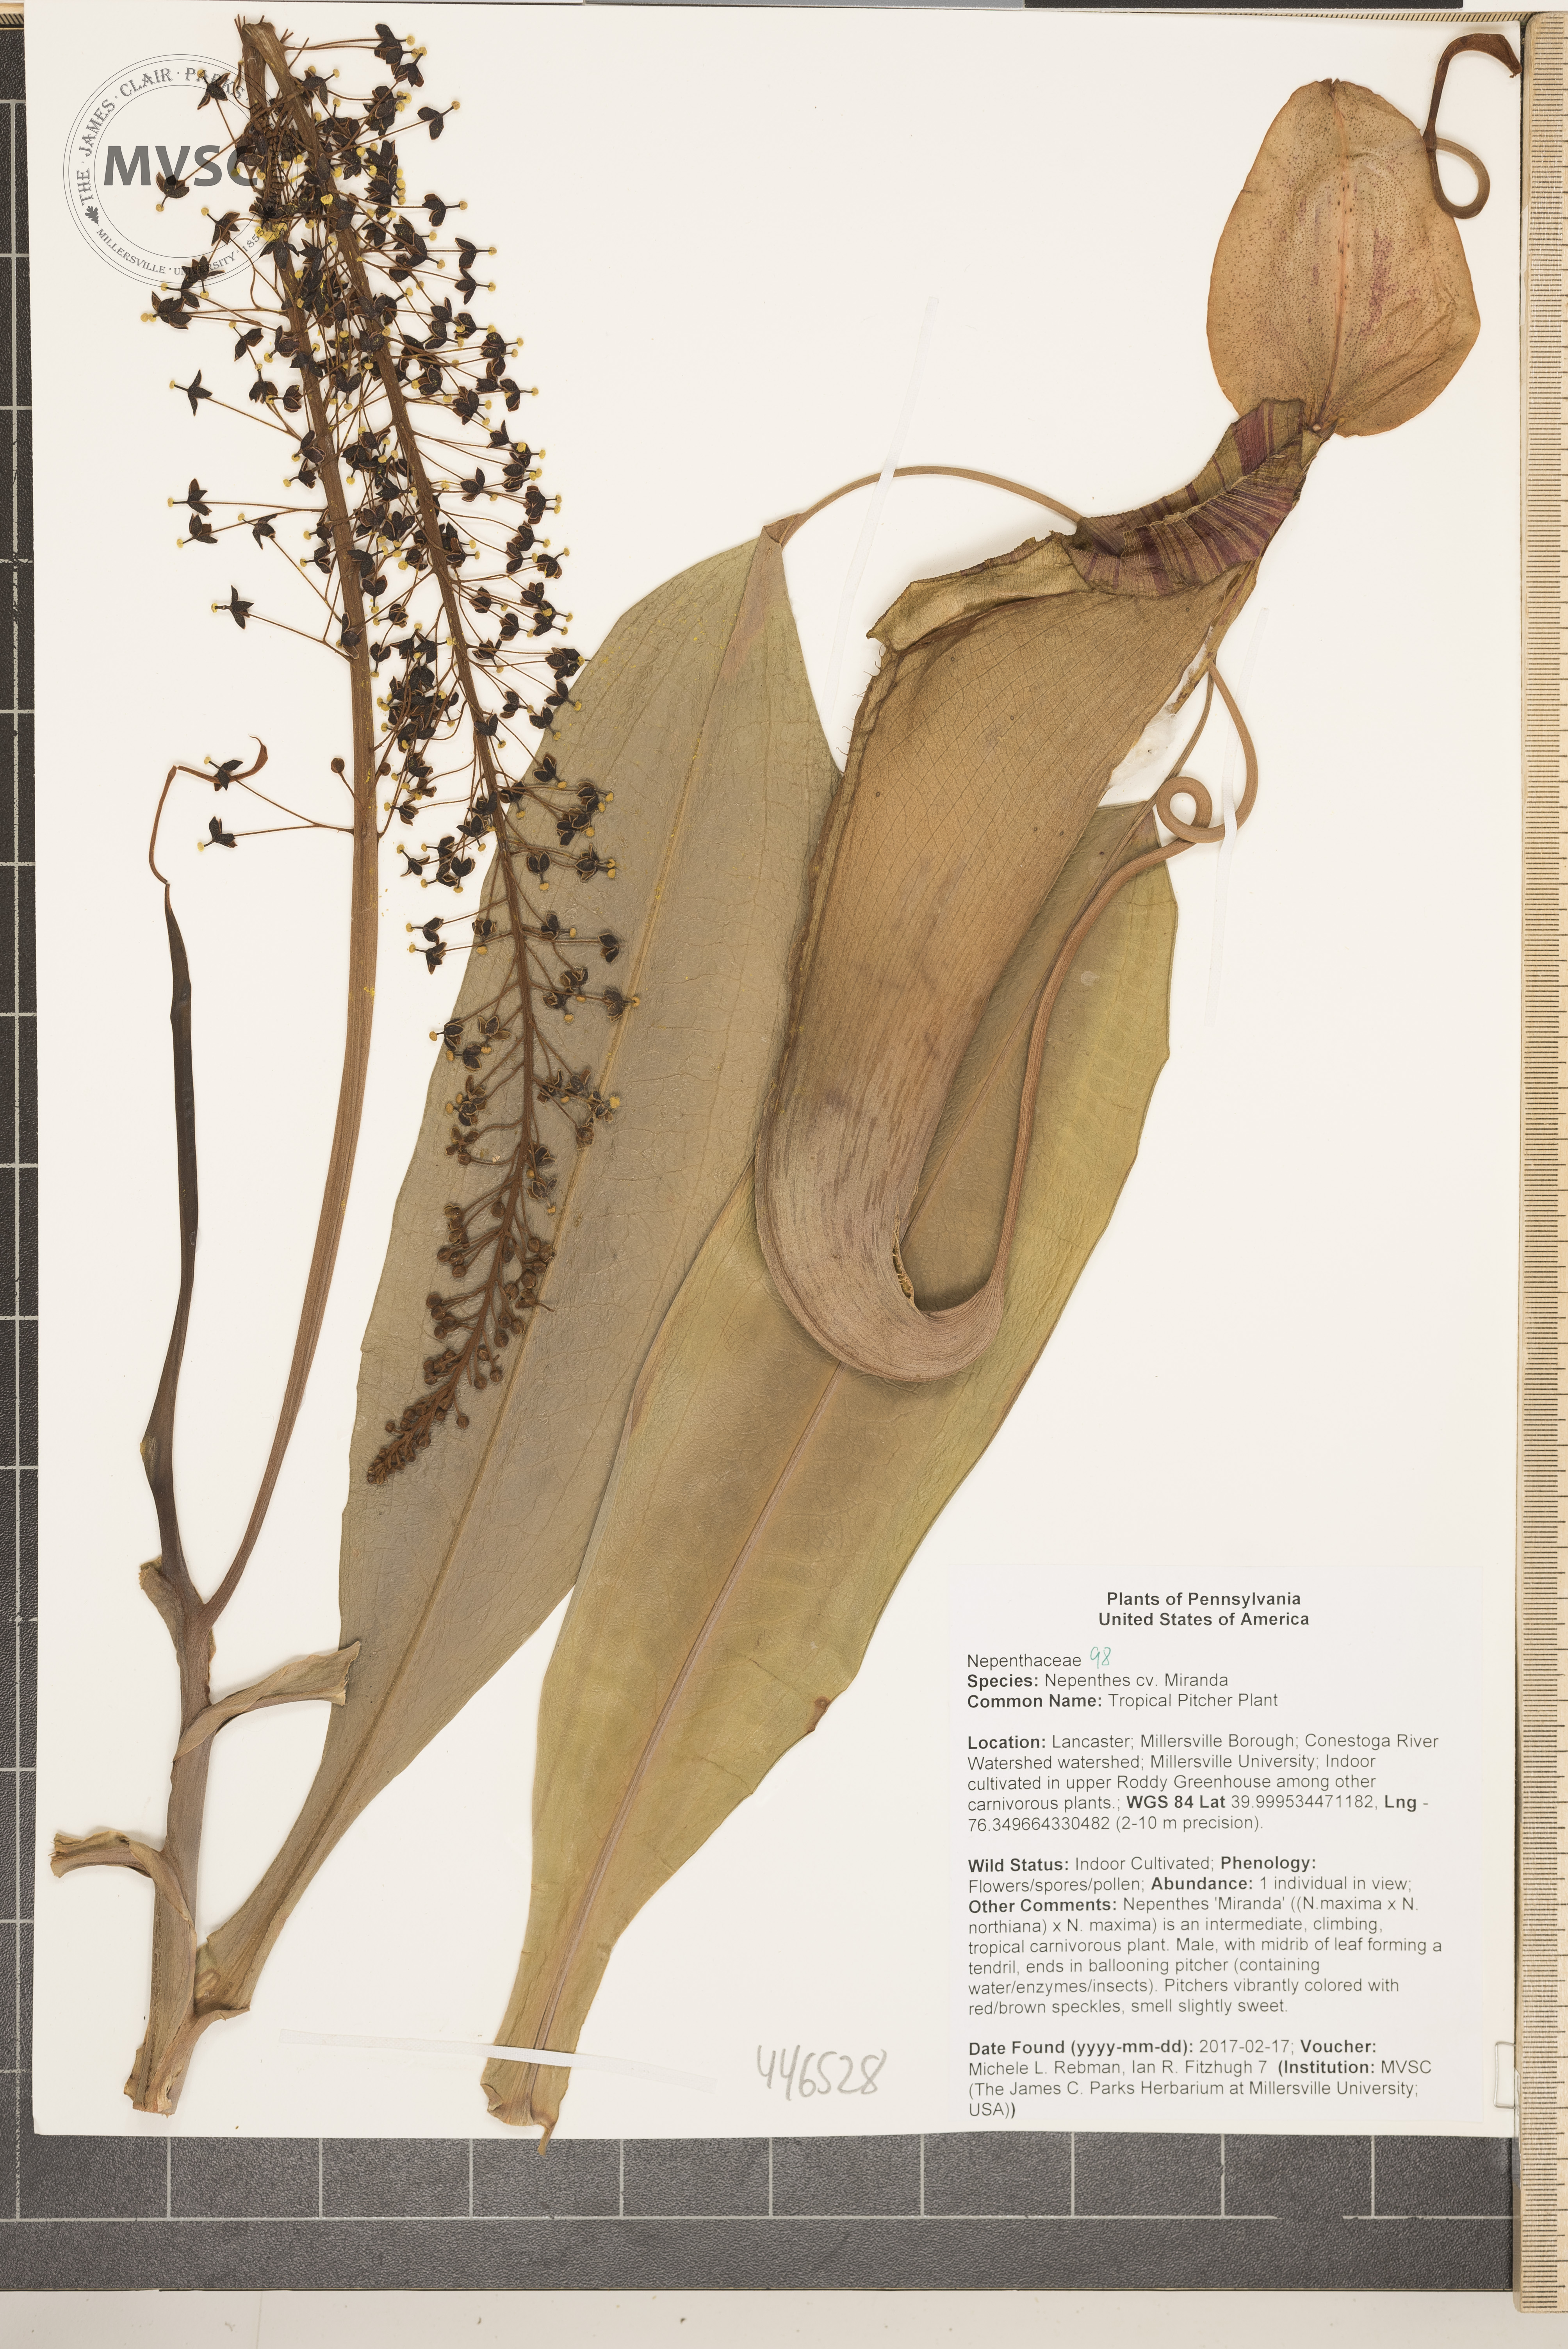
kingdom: Plantae
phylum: Tracheophyta
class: Magnoliopsida
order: Caryophyllales
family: Nepenthaceae
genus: Nepenthes
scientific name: Nepenthes
